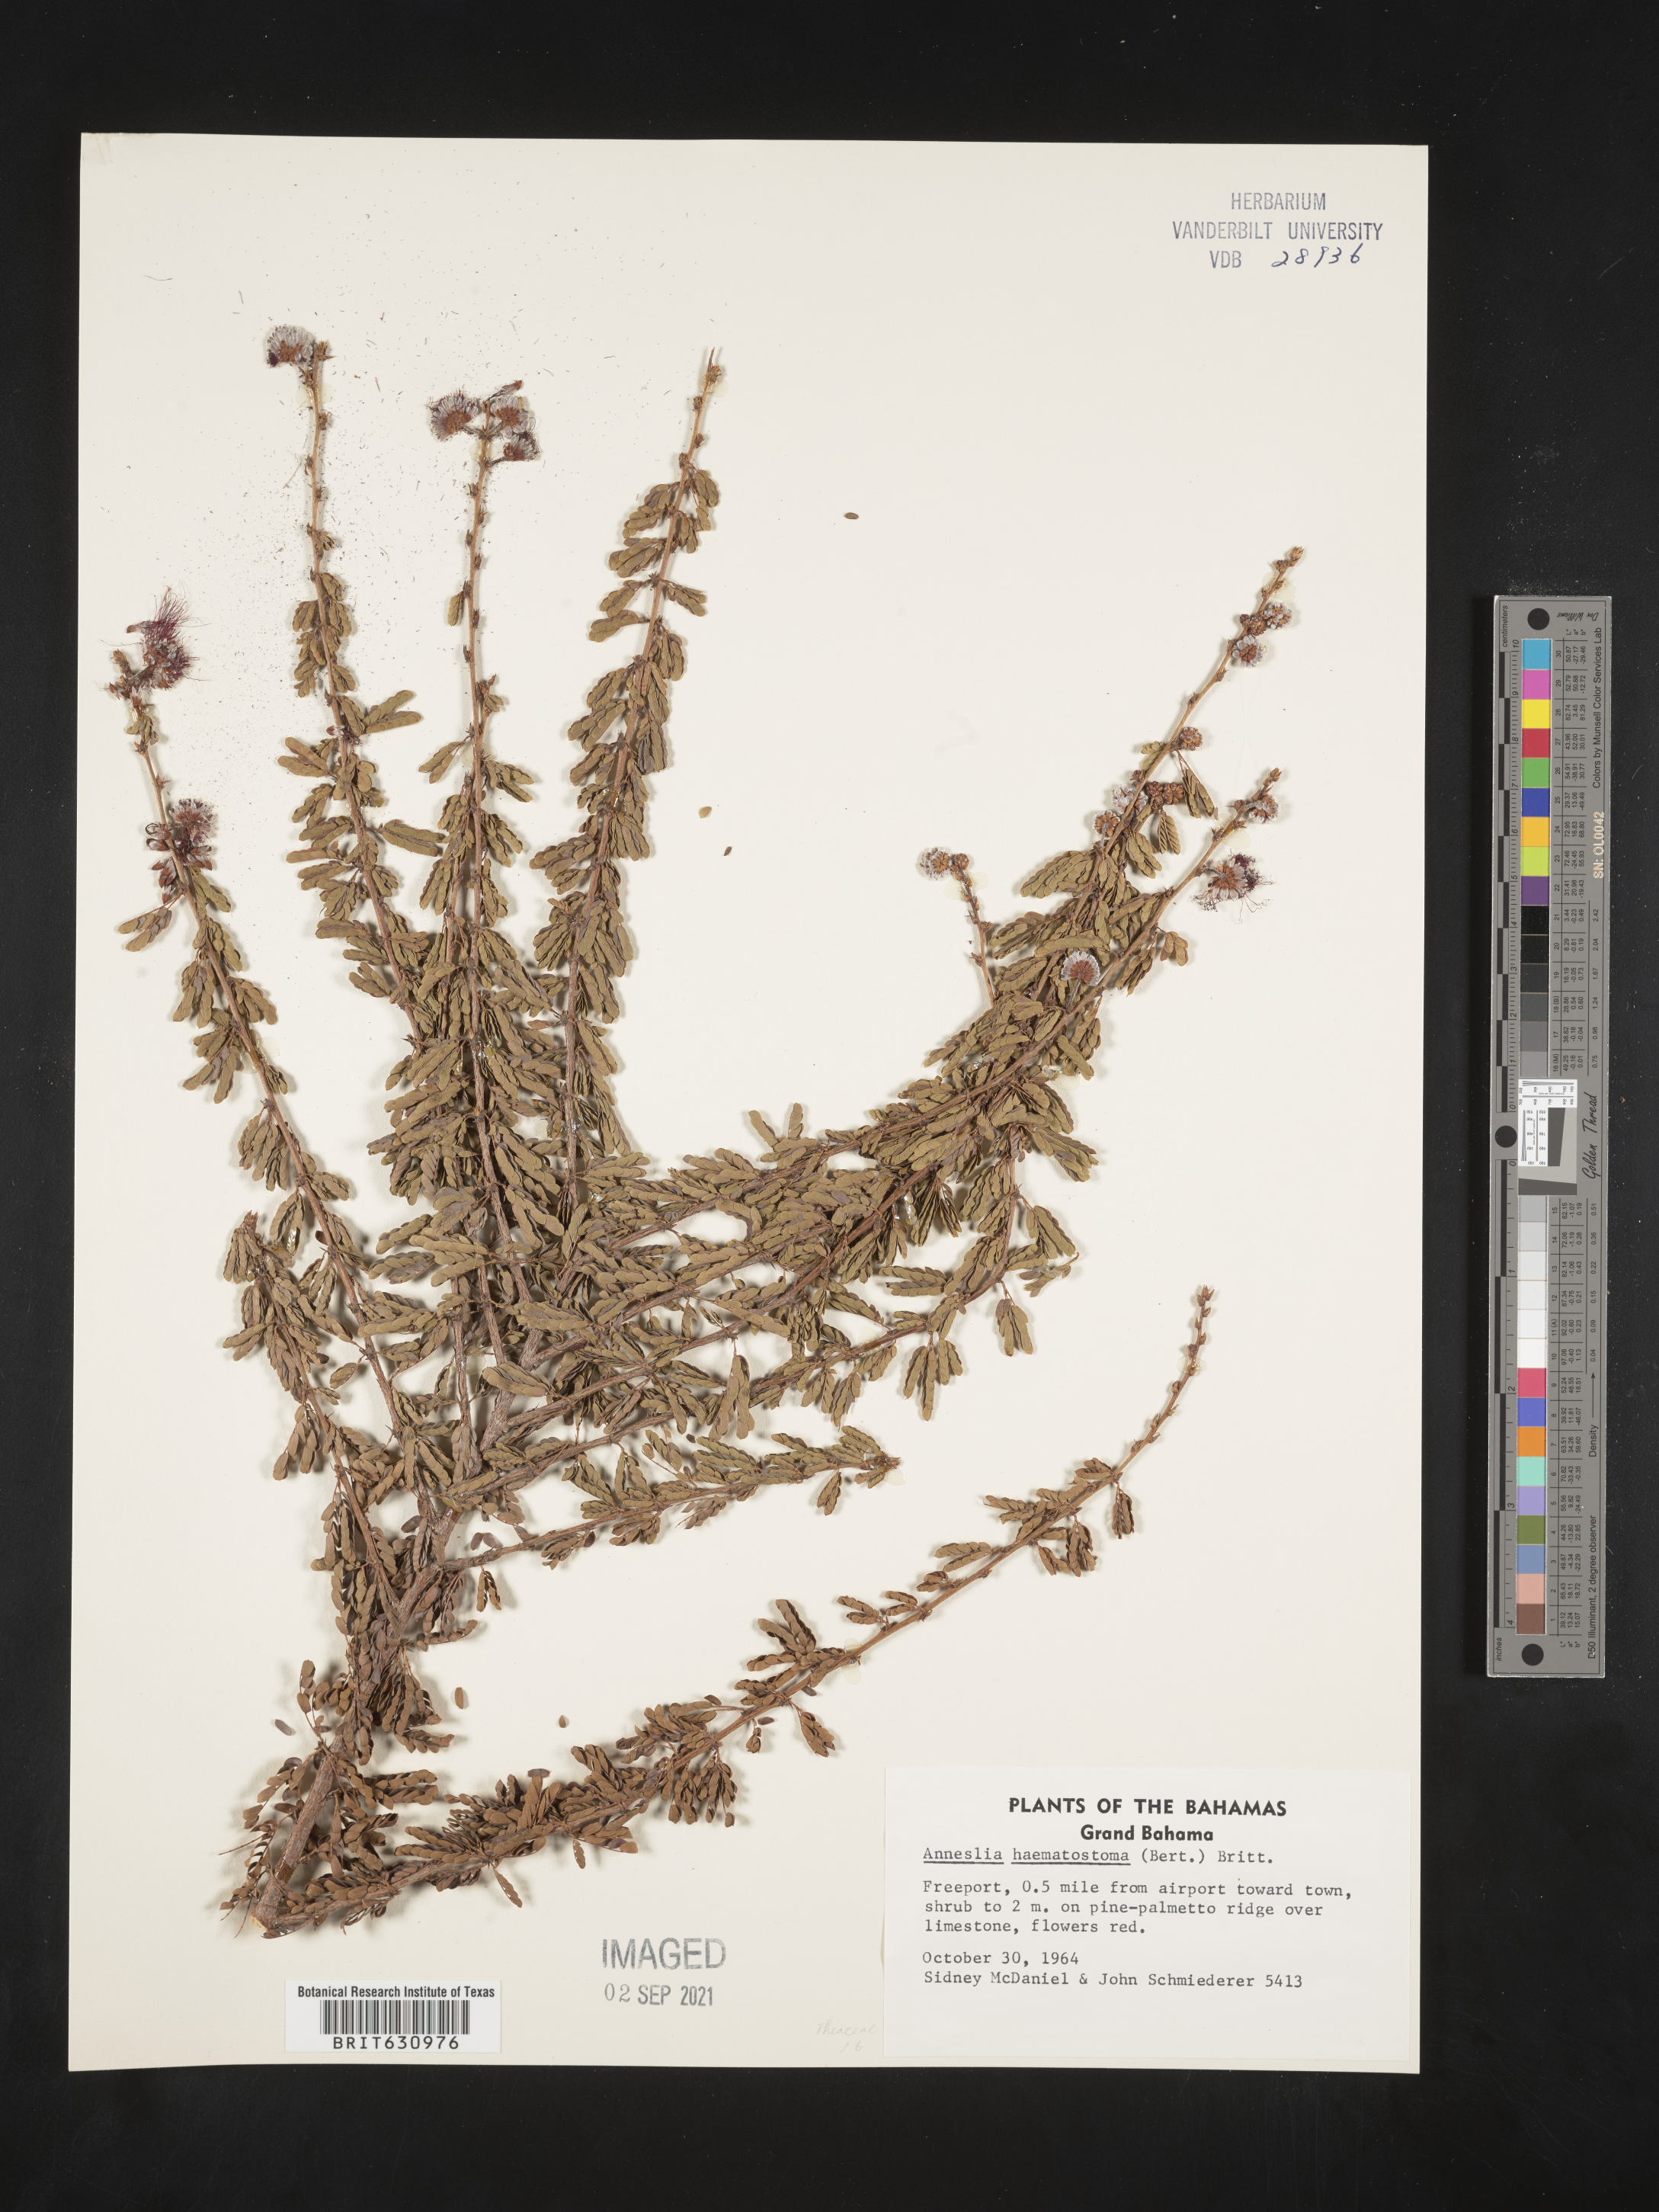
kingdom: Plantae
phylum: Tracheophyta
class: Magnoliopsida
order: Fabales
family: Fabaceae
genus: Calliandra
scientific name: Calliandra haematomma
